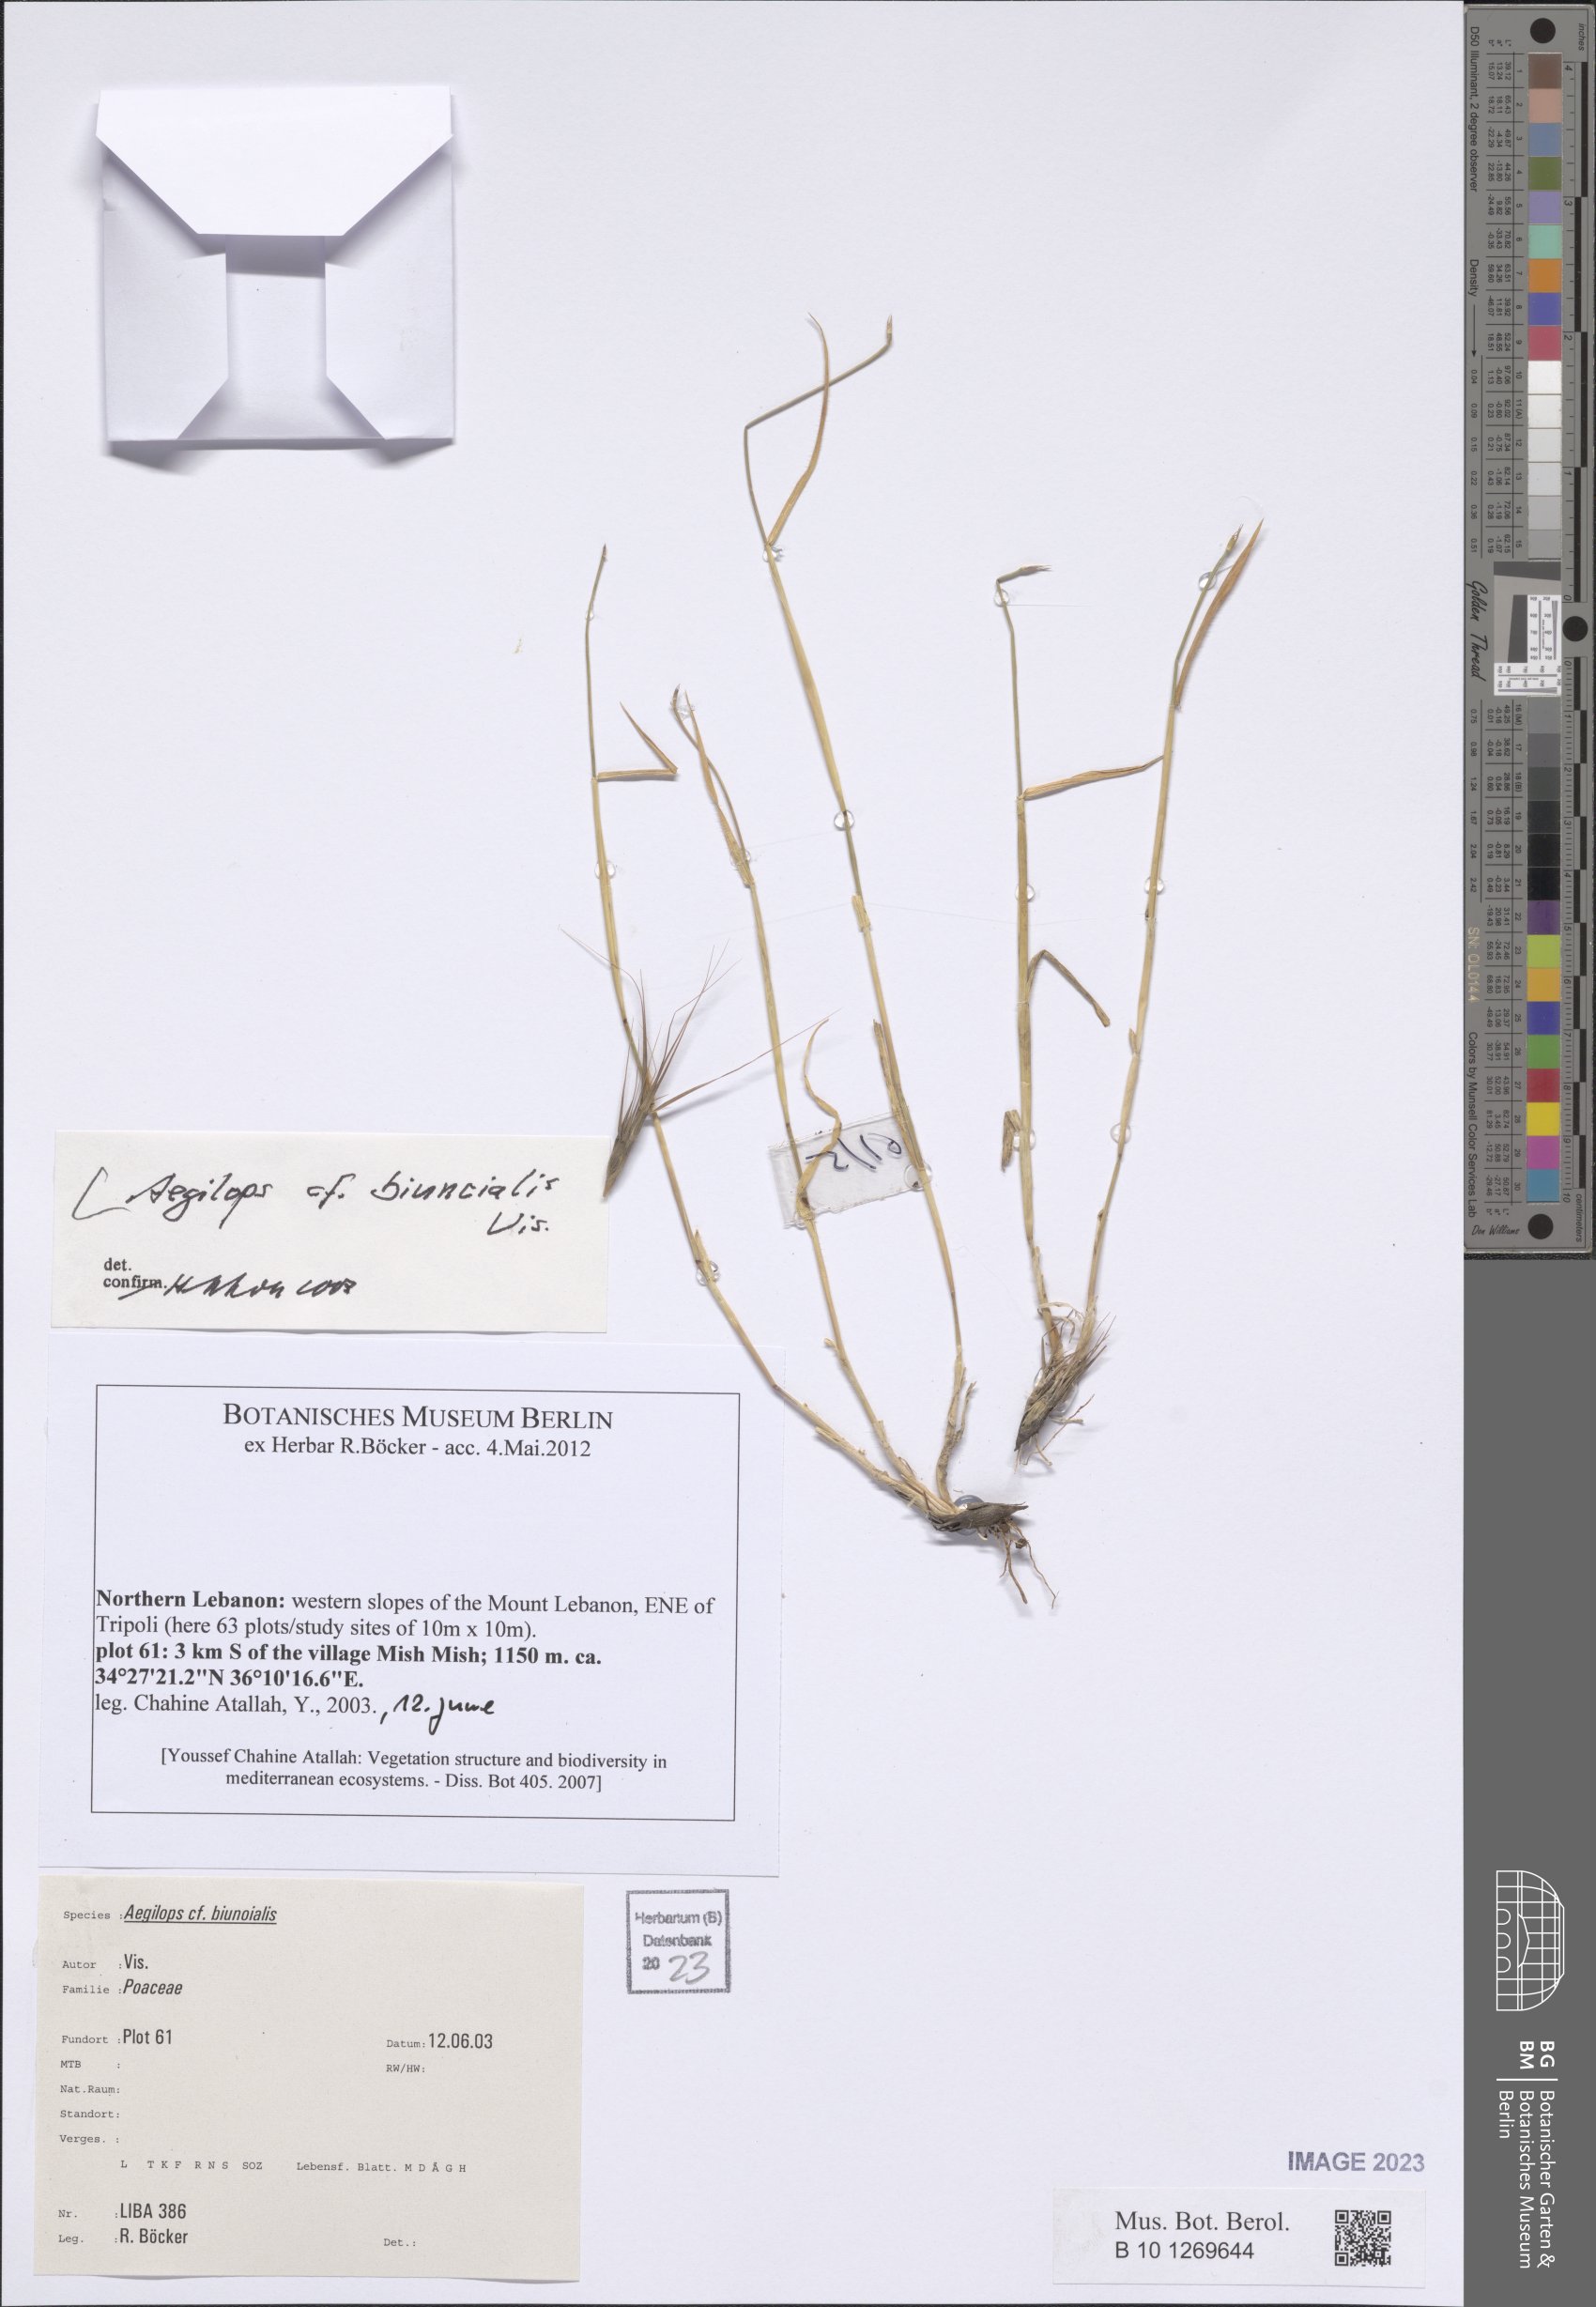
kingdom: Plantae
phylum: Tracheophyta
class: Liliopsida
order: Poales
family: Poaceae
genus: Aegilops
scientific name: Aegilops biuncialis
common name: Mediterranean aegilops
